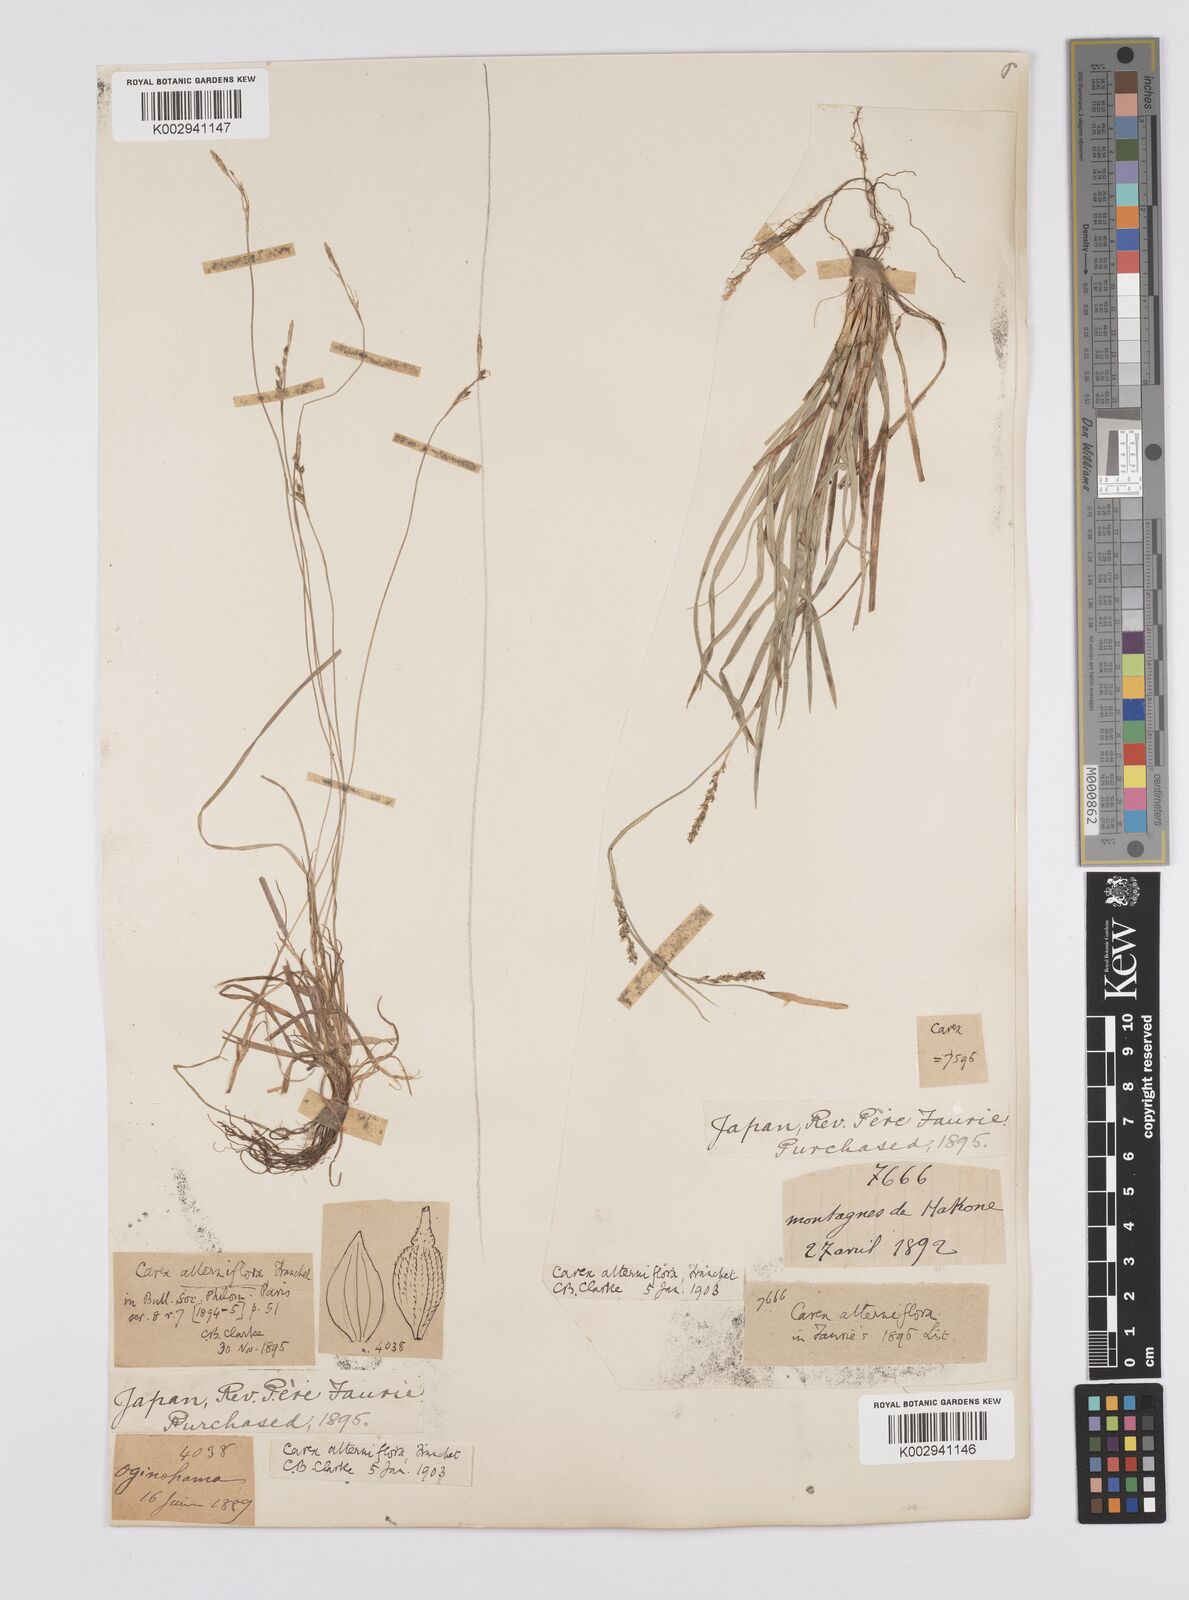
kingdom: Plantae
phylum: Tracheophyta
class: Liliopsida
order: Poales
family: Cyperaceae
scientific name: Cyperaceae
